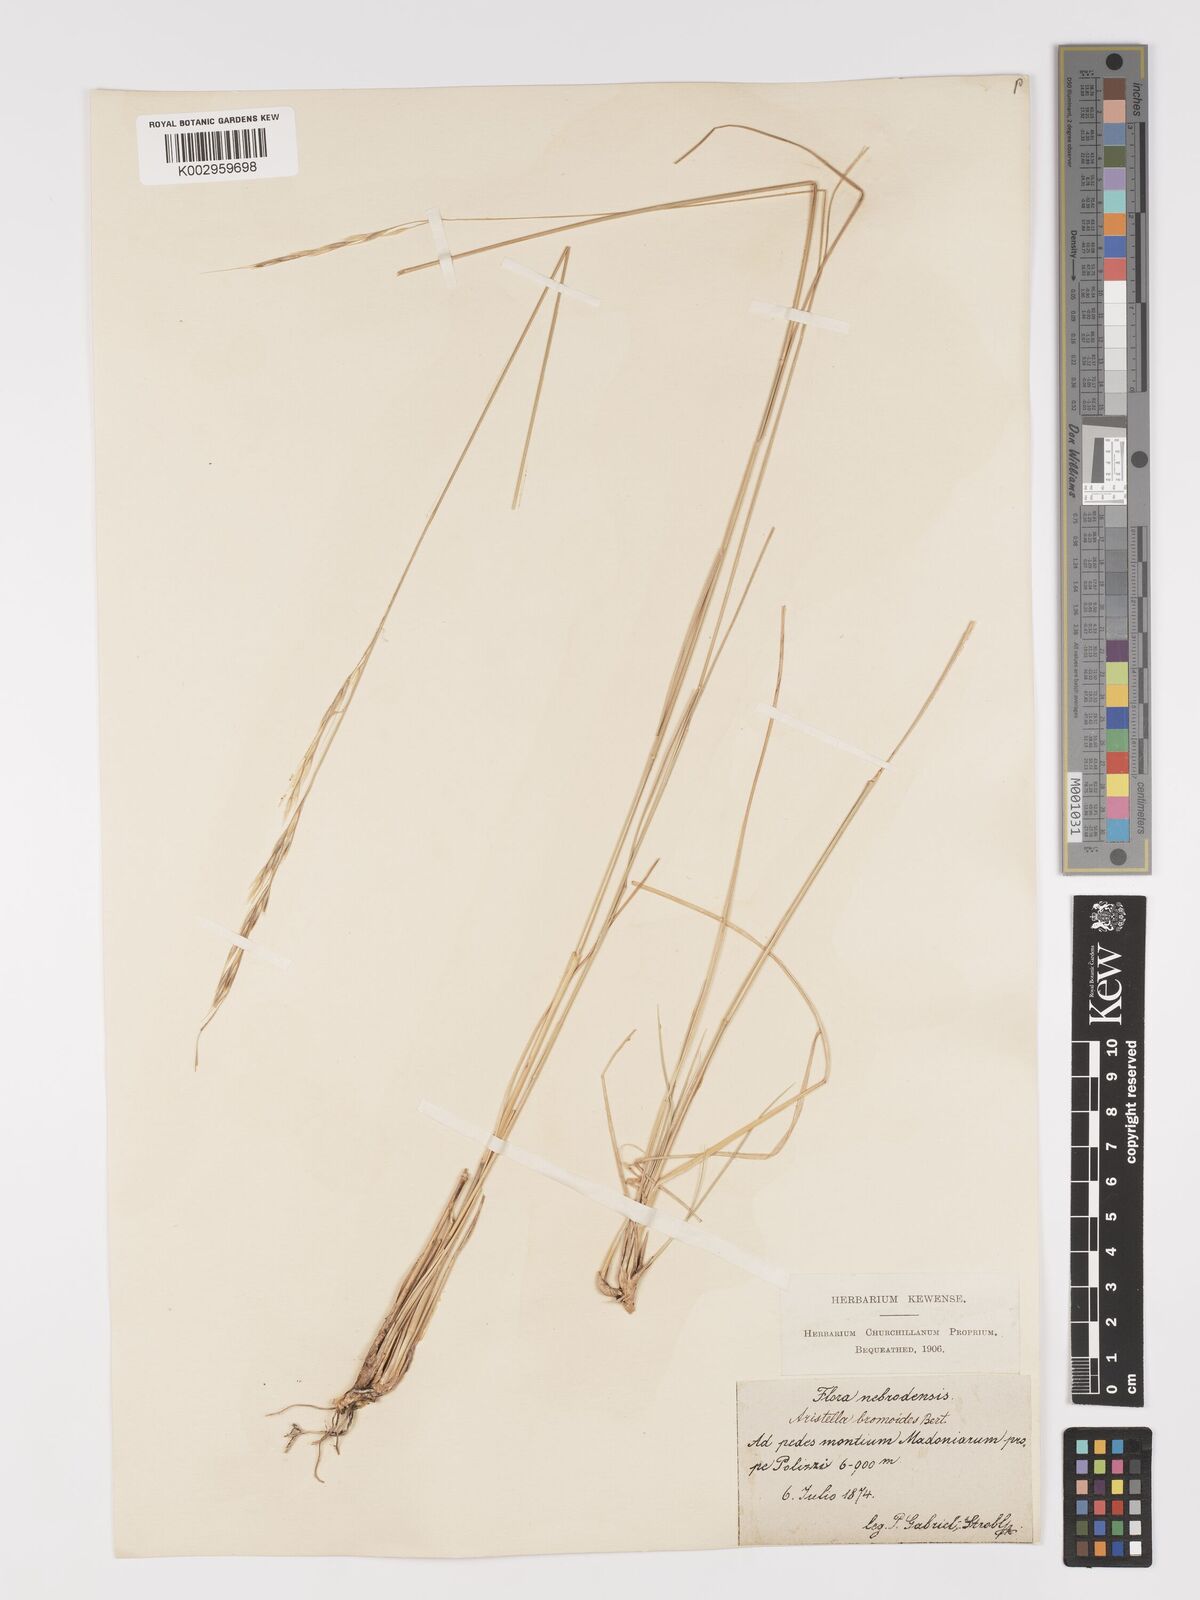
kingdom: Plantae
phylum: Tracheophyta
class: Liliopsida
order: Poales
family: Poaceae
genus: Achnatherum
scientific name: Achnatherum bromoides
